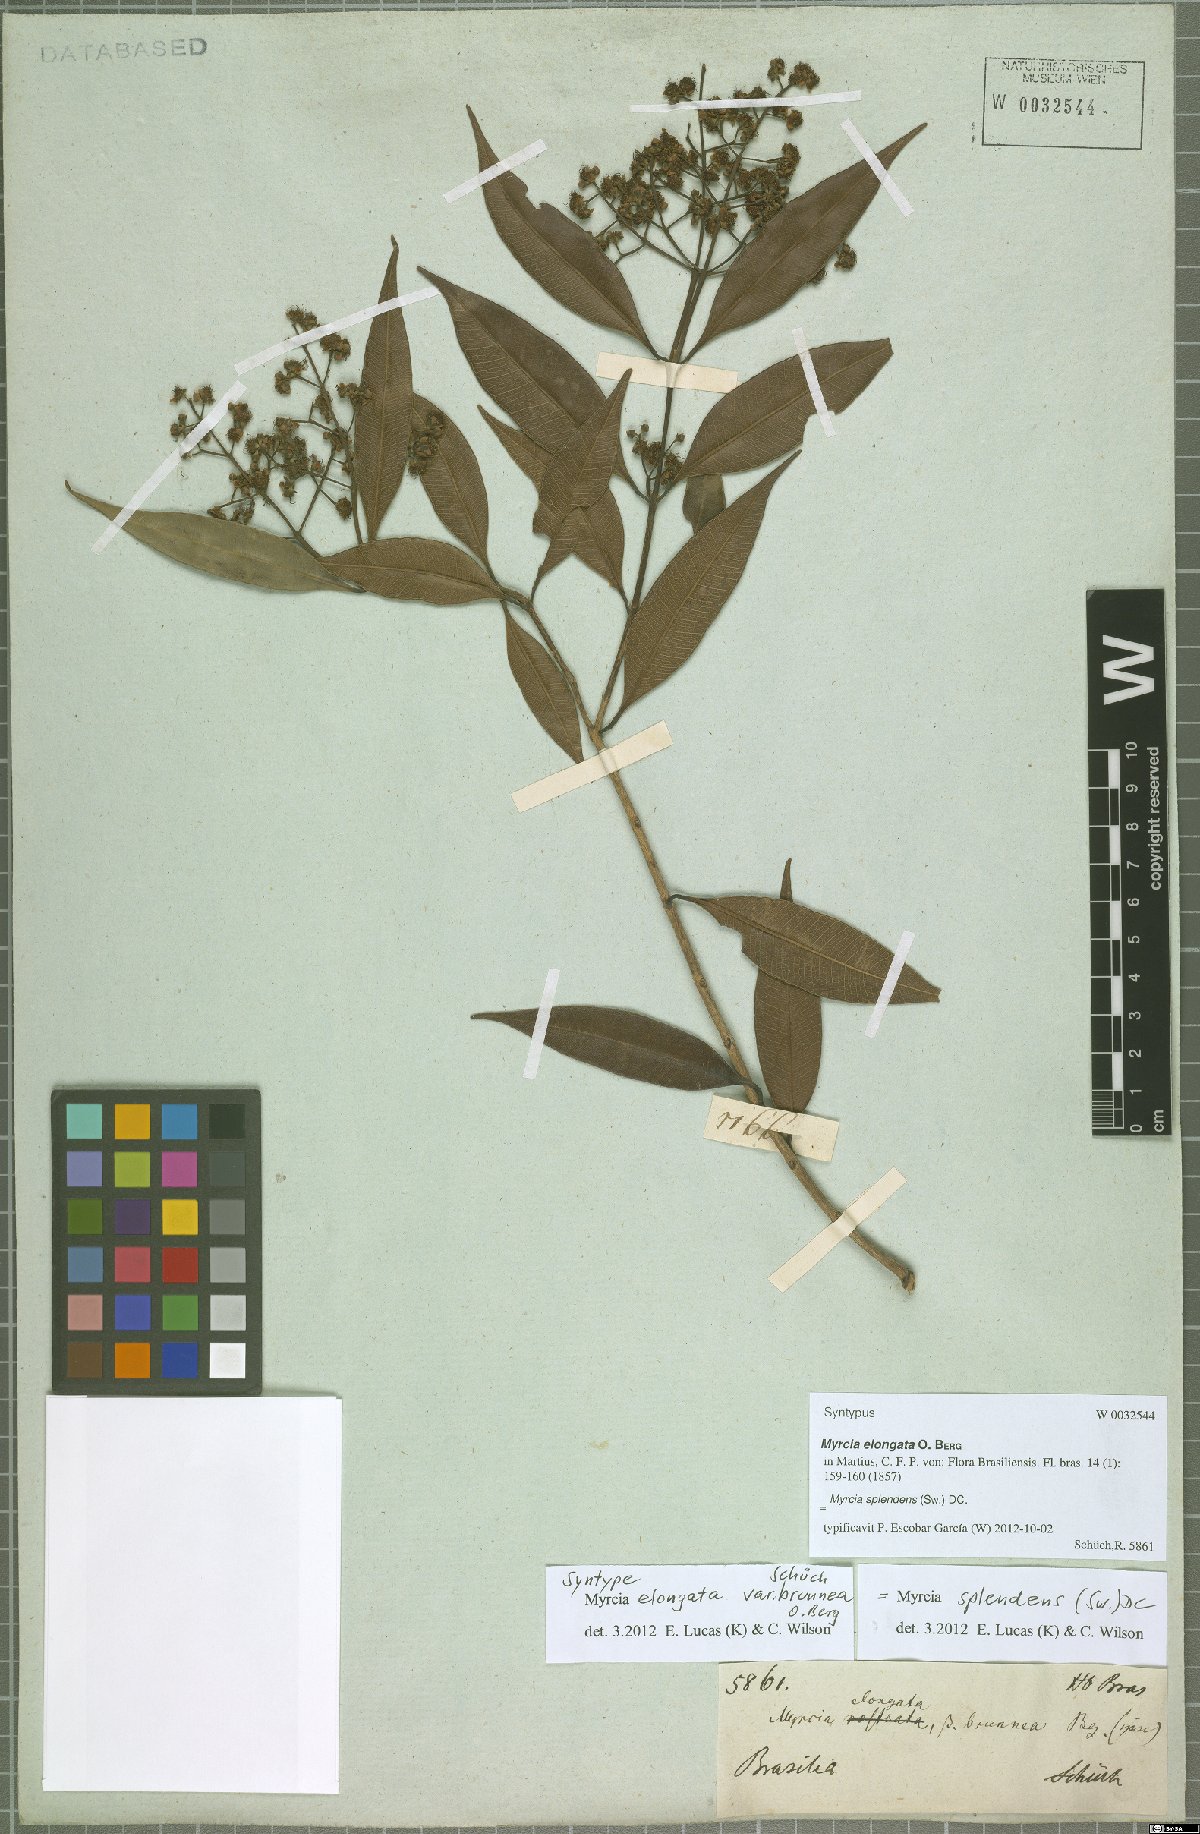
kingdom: Plantae
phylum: Tracheophyta
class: Magnoliopsida
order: Myrtales
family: Myrtaceae
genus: Myrcia
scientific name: Myrcia splendens
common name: Surinam cherry
